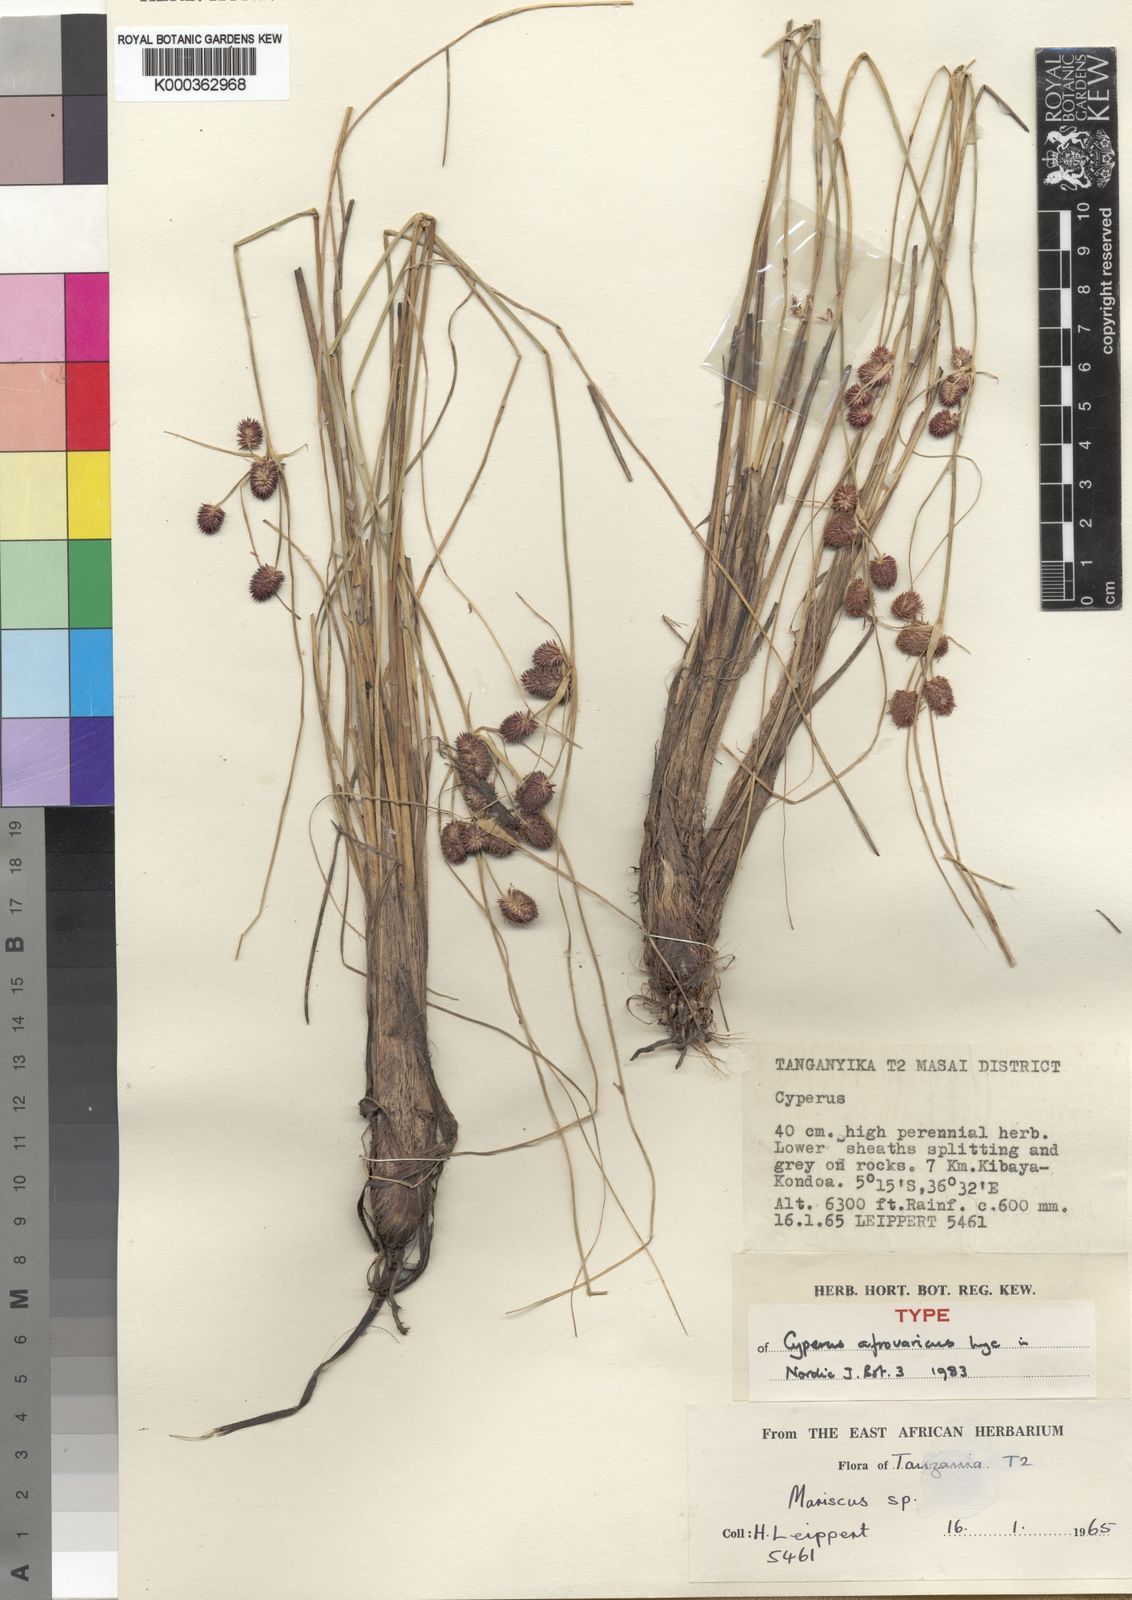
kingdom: Plantae
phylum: Tracheophyta
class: Liliopsida
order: Poales
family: Cyperaceae
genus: Cyperus
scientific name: Cyperus afrovaricus
